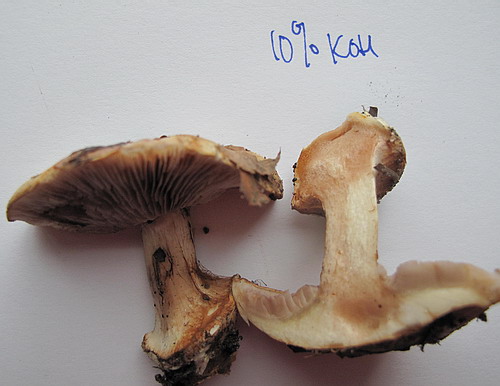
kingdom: Fungi
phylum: Basidiomycota
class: Agaricomycetes
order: Agaricales
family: Cortinariaceae
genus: Calonarius
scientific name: Calonarius platypus
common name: platfodet slørhat
